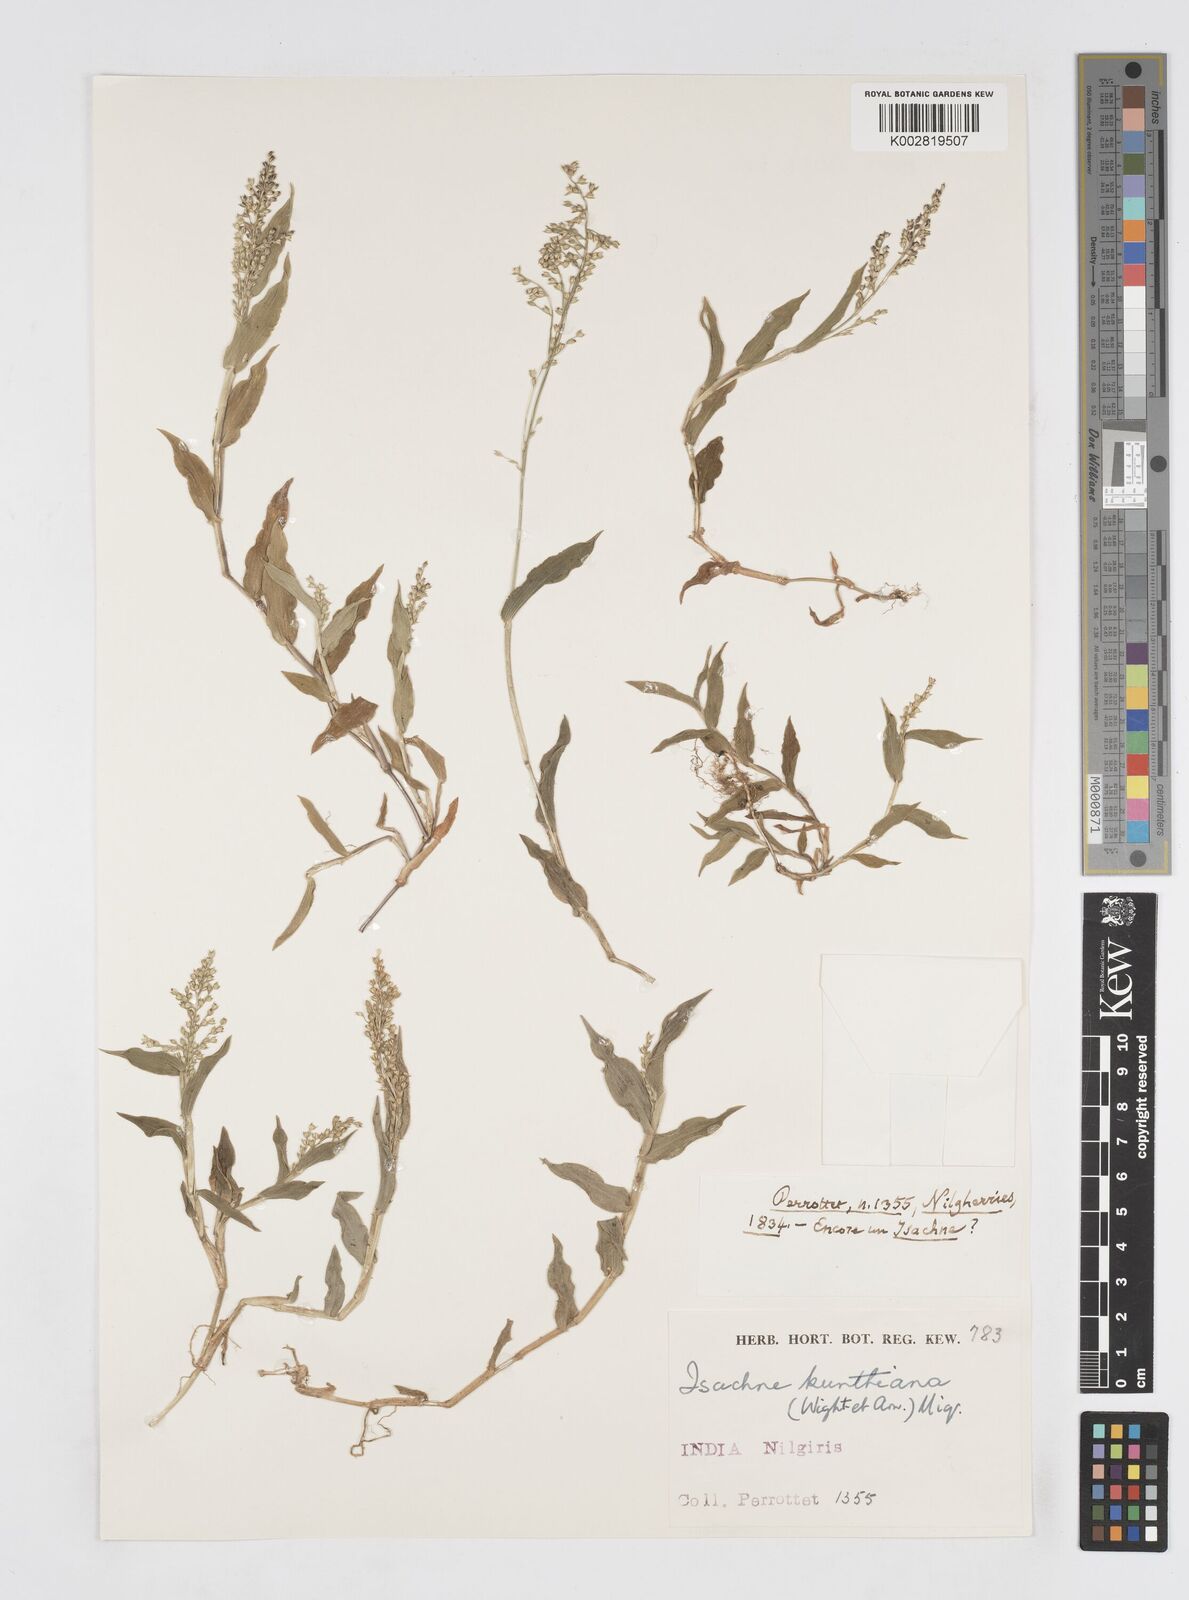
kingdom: Plantae
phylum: Tracheophyta
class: Liliopsida
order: Poales
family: Poaceae
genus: Isachne
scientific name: Isachne kunthiana
